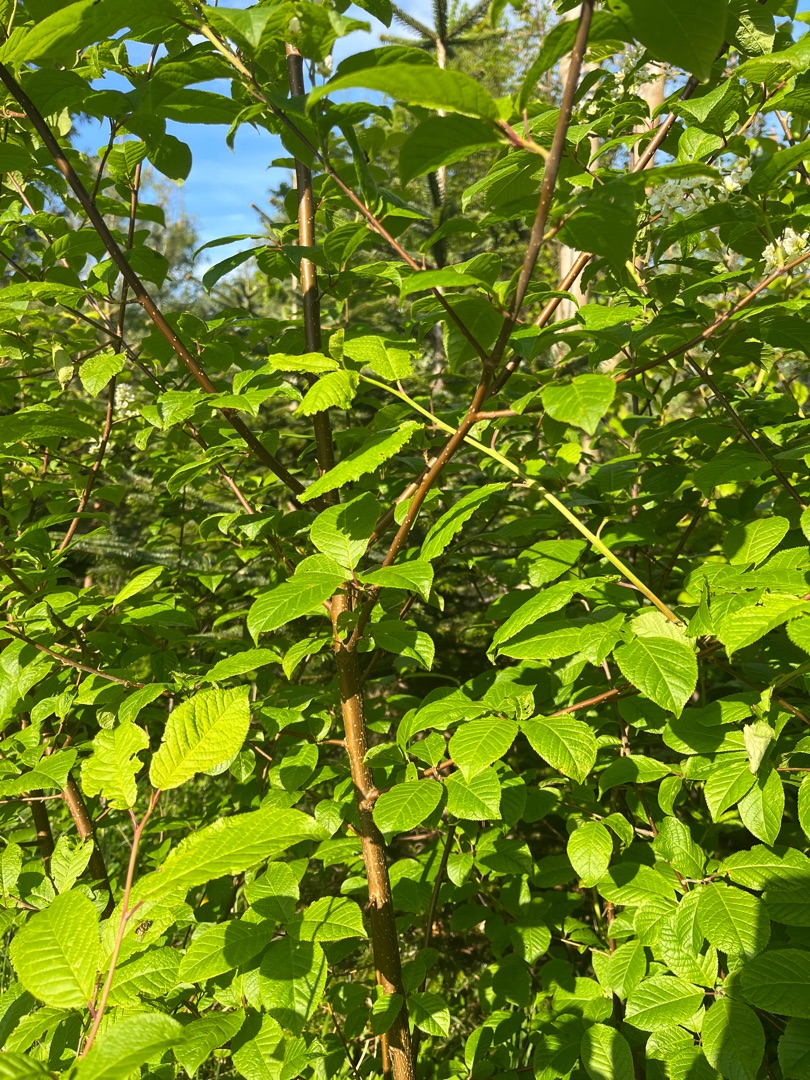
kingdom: Plantae
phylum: Tracheophyta
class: Magnoliopsida
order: Rosales
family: Rosaceae
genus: Prunus
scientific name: Prunus padus
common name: Almindelig hæg
